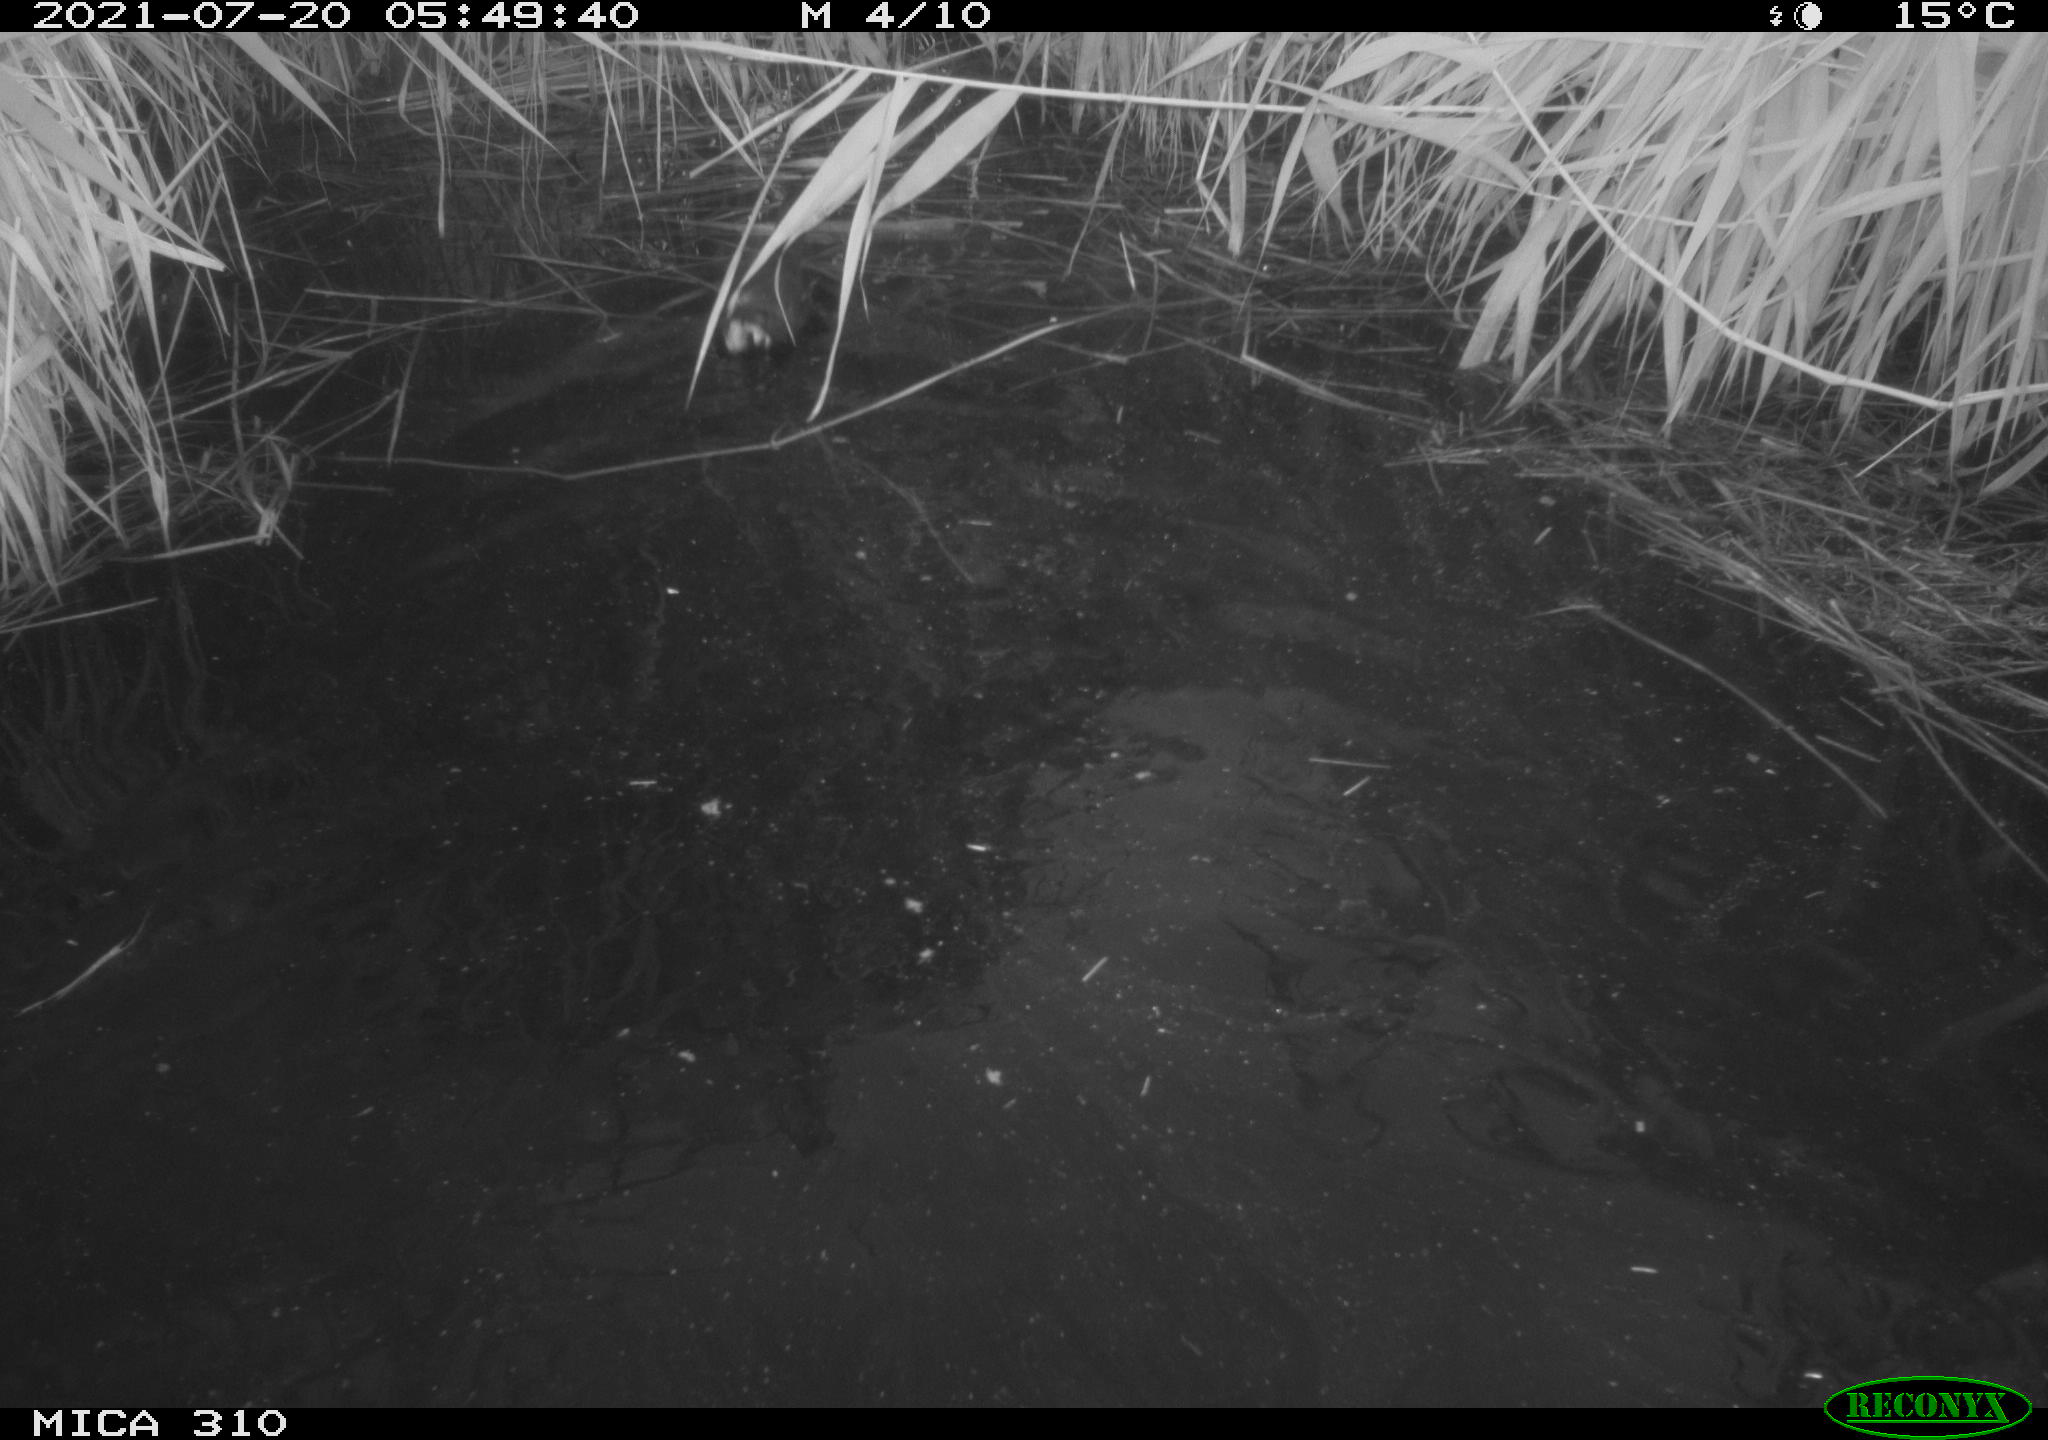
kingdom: Animalia
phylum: Chordata
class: Aves
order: Gruiformes
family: Rallidae
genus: Gallinula
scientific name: Gallinula chloropus
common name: Common moorhen
